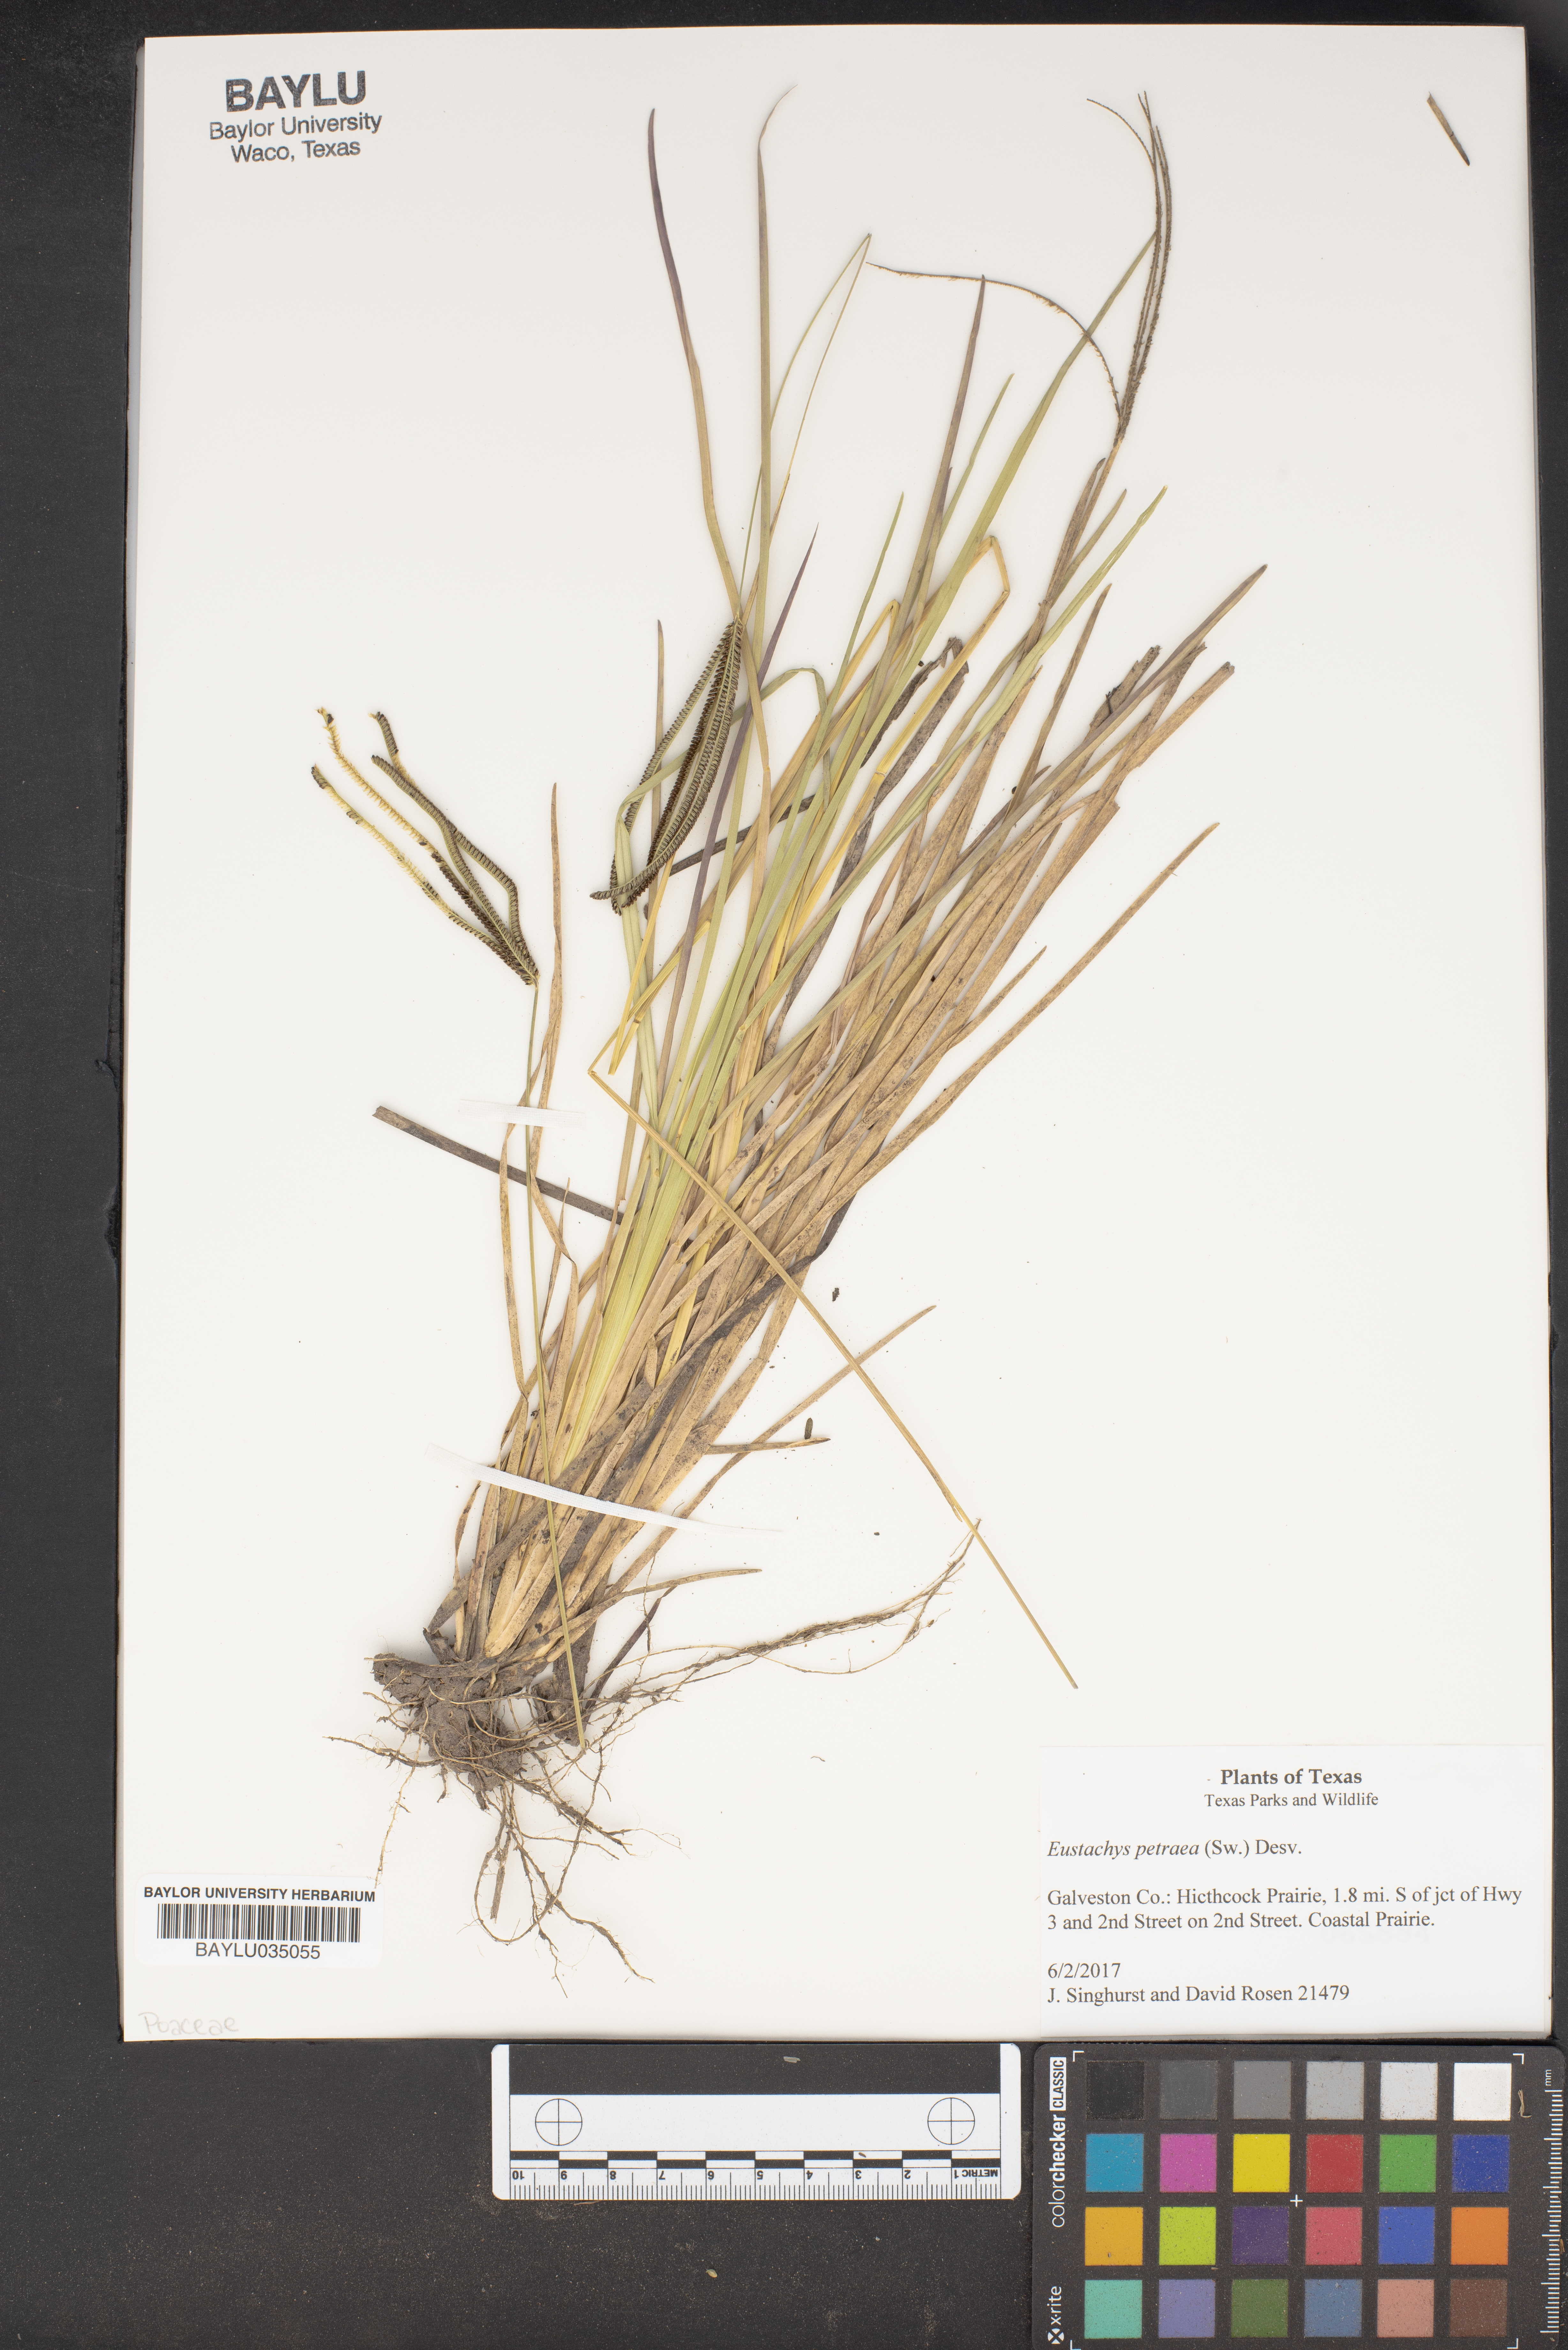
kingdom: Plantae
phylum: Tracheophyta
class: Liliopsida
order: Poales
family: Poaceae
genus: Eustachys
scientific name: Eustachys petraea
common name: Pinewoods fingergrass
